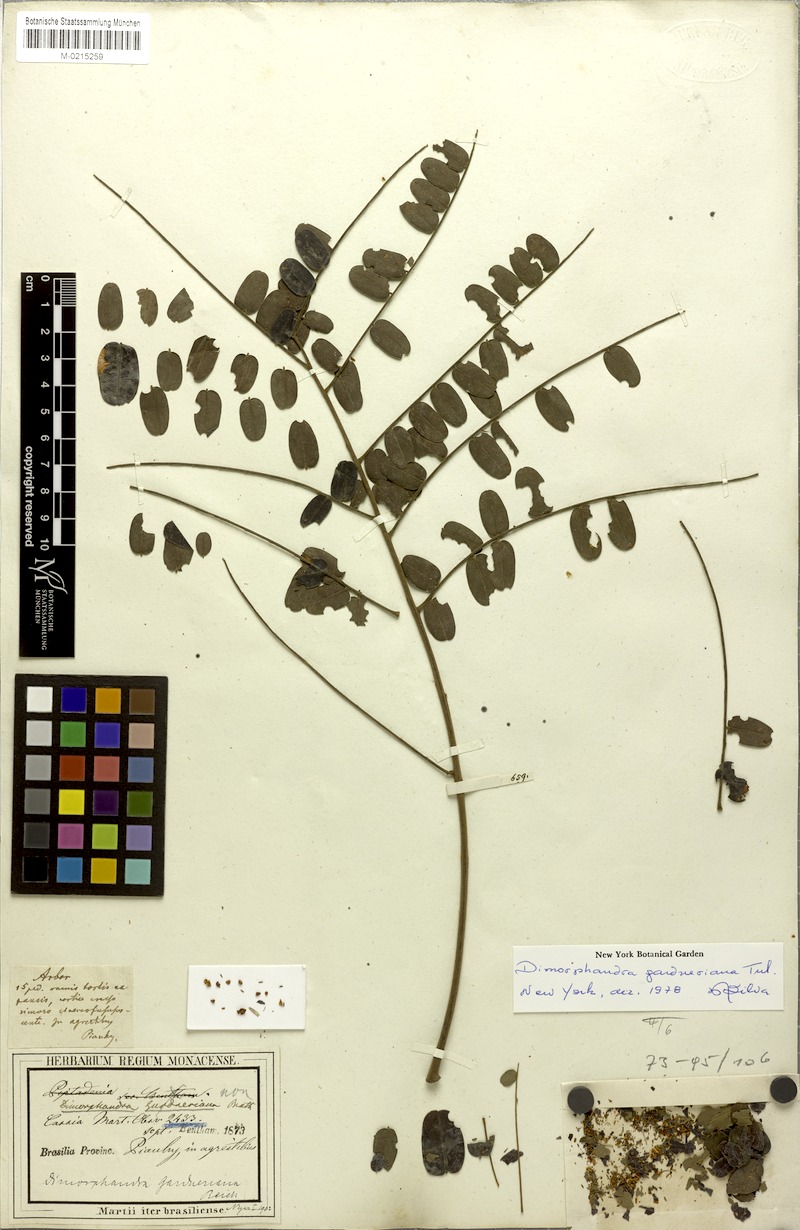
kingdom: Plantae
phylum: Tracheophyta
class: Magnoliopsida
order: Fabales
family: Fabaceae
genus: Dimorphandra
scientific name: Dimorphandra gardneriana
